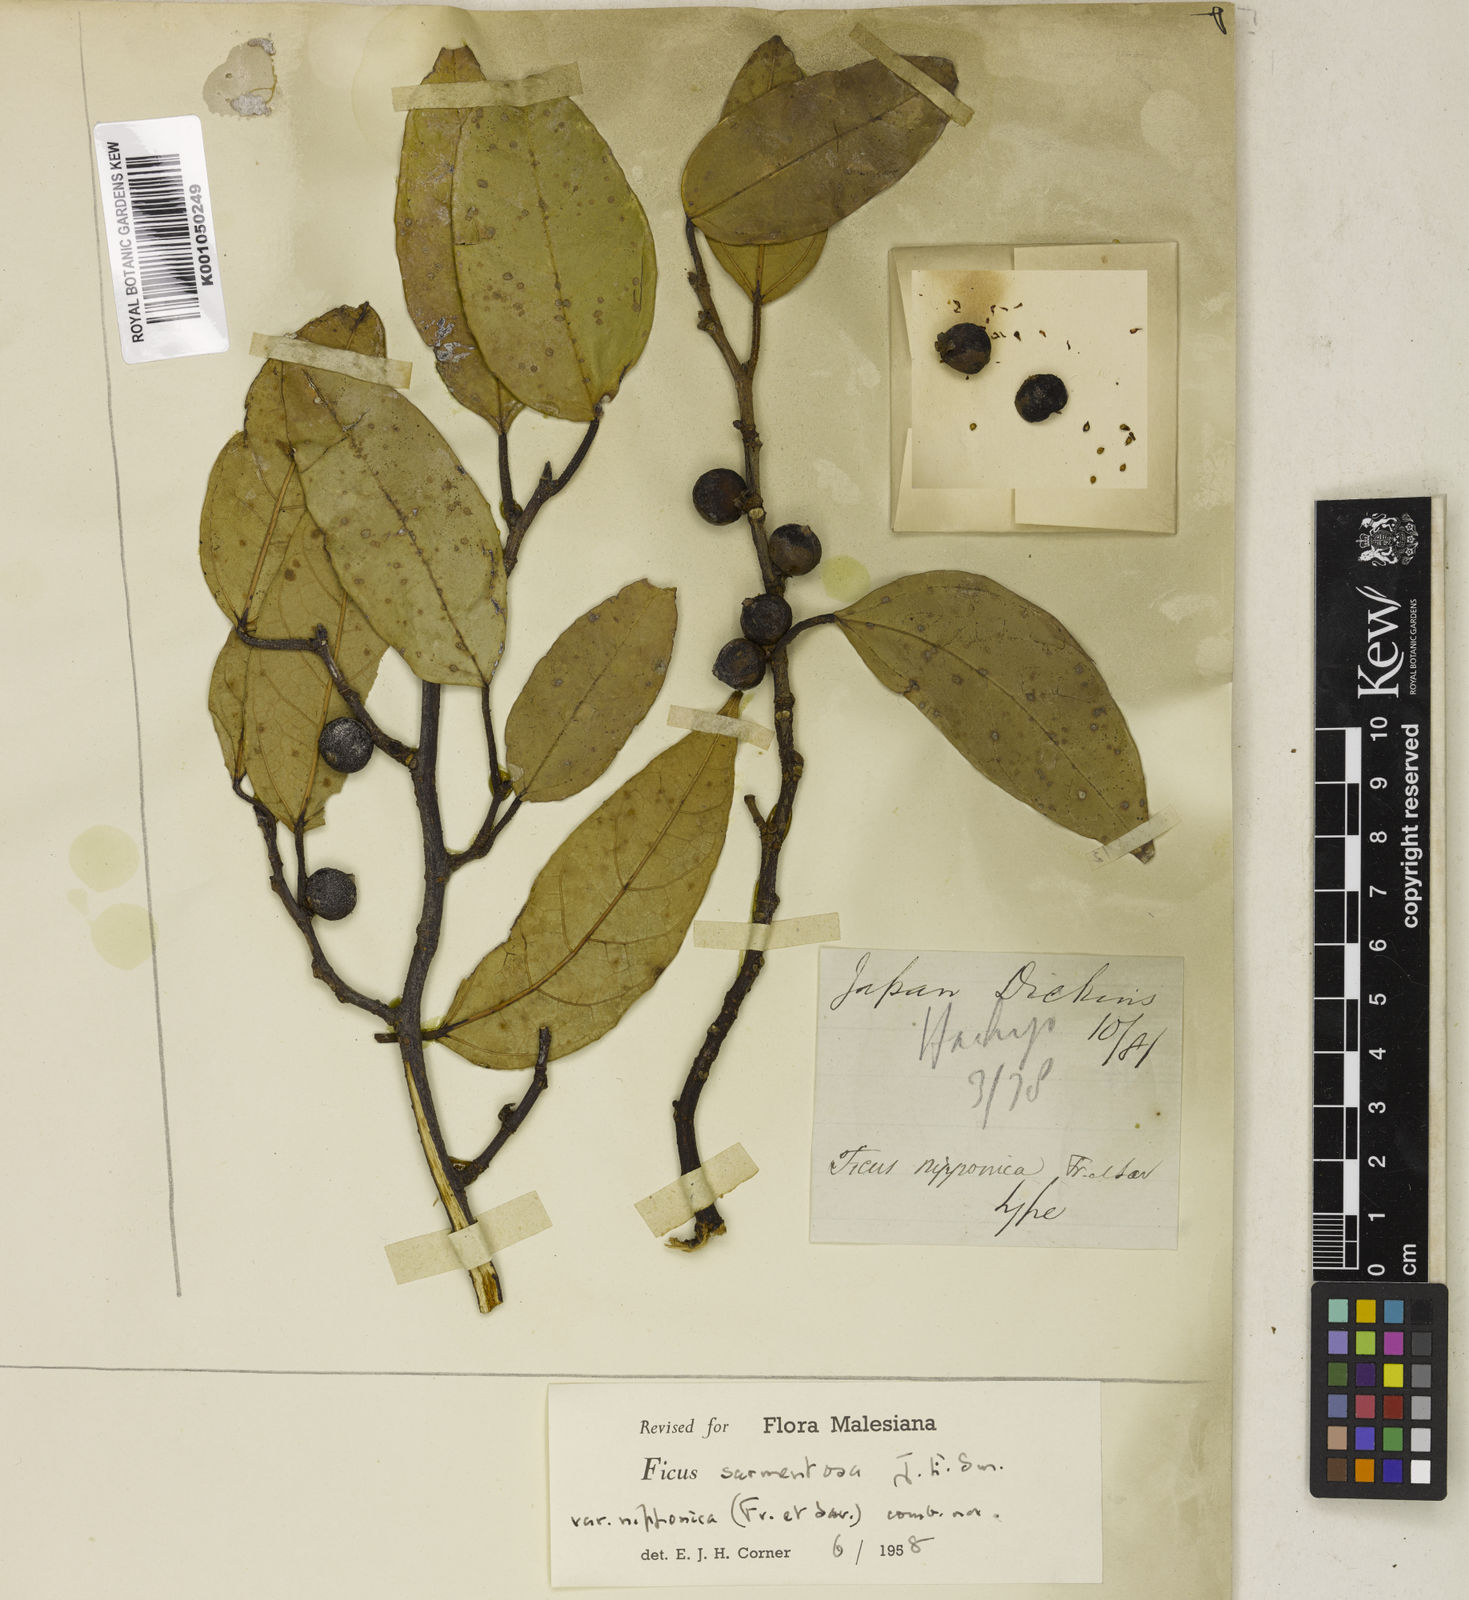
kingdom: Plantae
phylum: Tracheophyta
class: Magnoliopsida
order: Rosales
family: Moraceae
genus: Ficus
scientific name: Ficus sarmentosa
